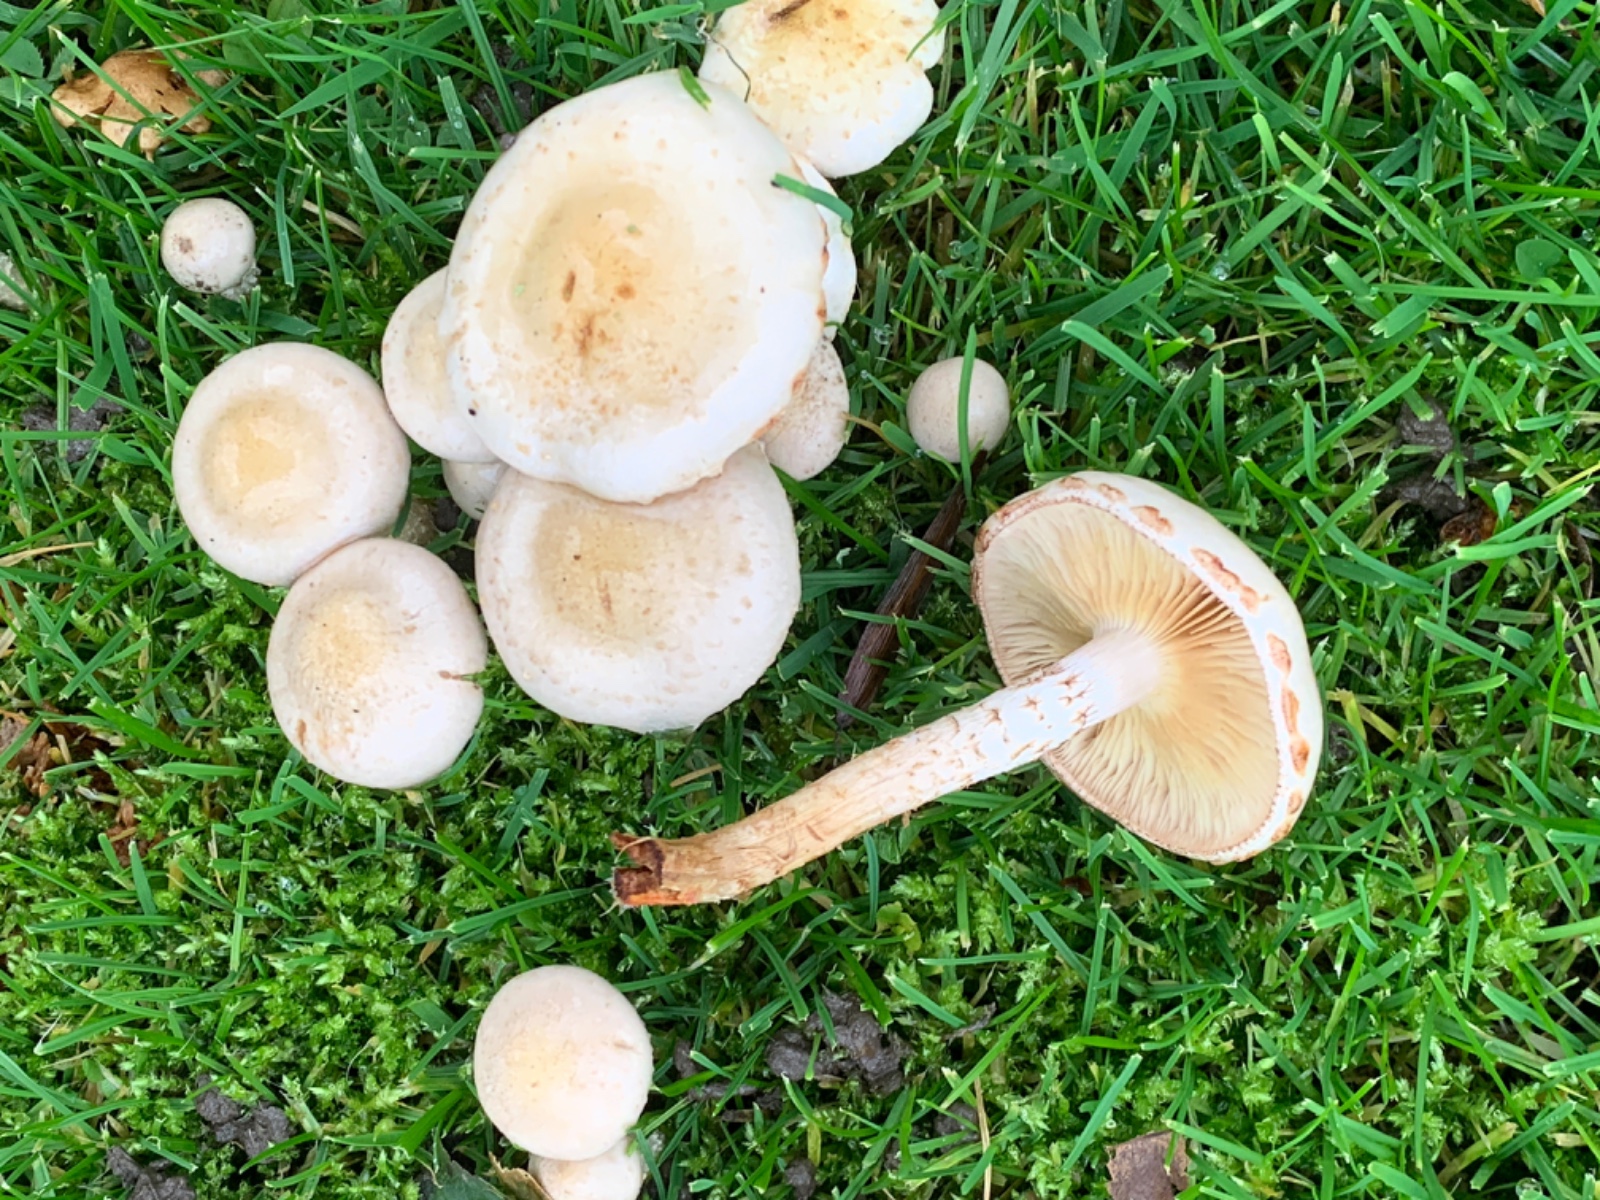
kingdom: Fungi
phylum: Basidiomycota
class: Agaricomycetes
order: Agaricales
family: Strophariaceae
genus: Pholiota
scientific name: Pholiota gummosa
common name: grøngul skælhat
